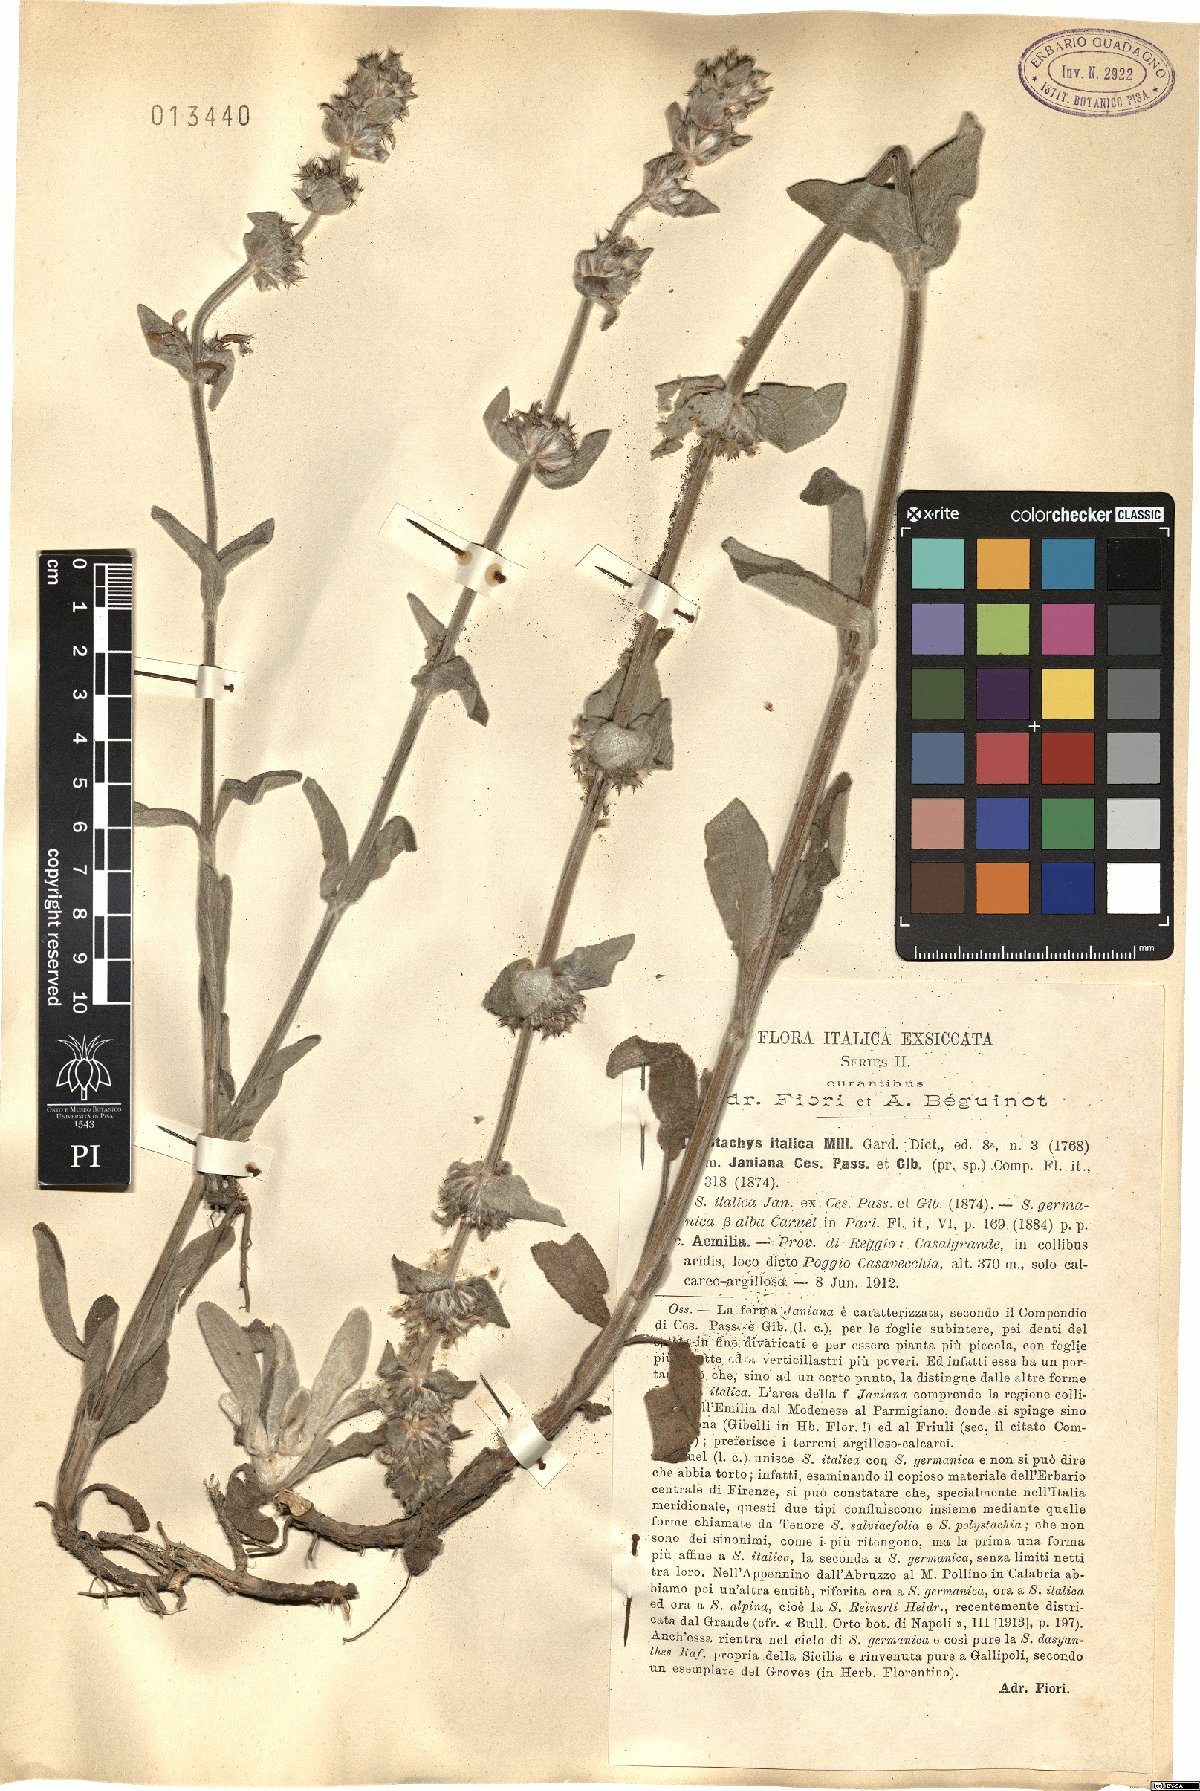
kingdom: Plantae
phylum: Tracheophyta
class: Magnoliopsida
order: Lamiales
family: Lamiaceae
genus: Sideritis
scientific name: Sideritis italica
